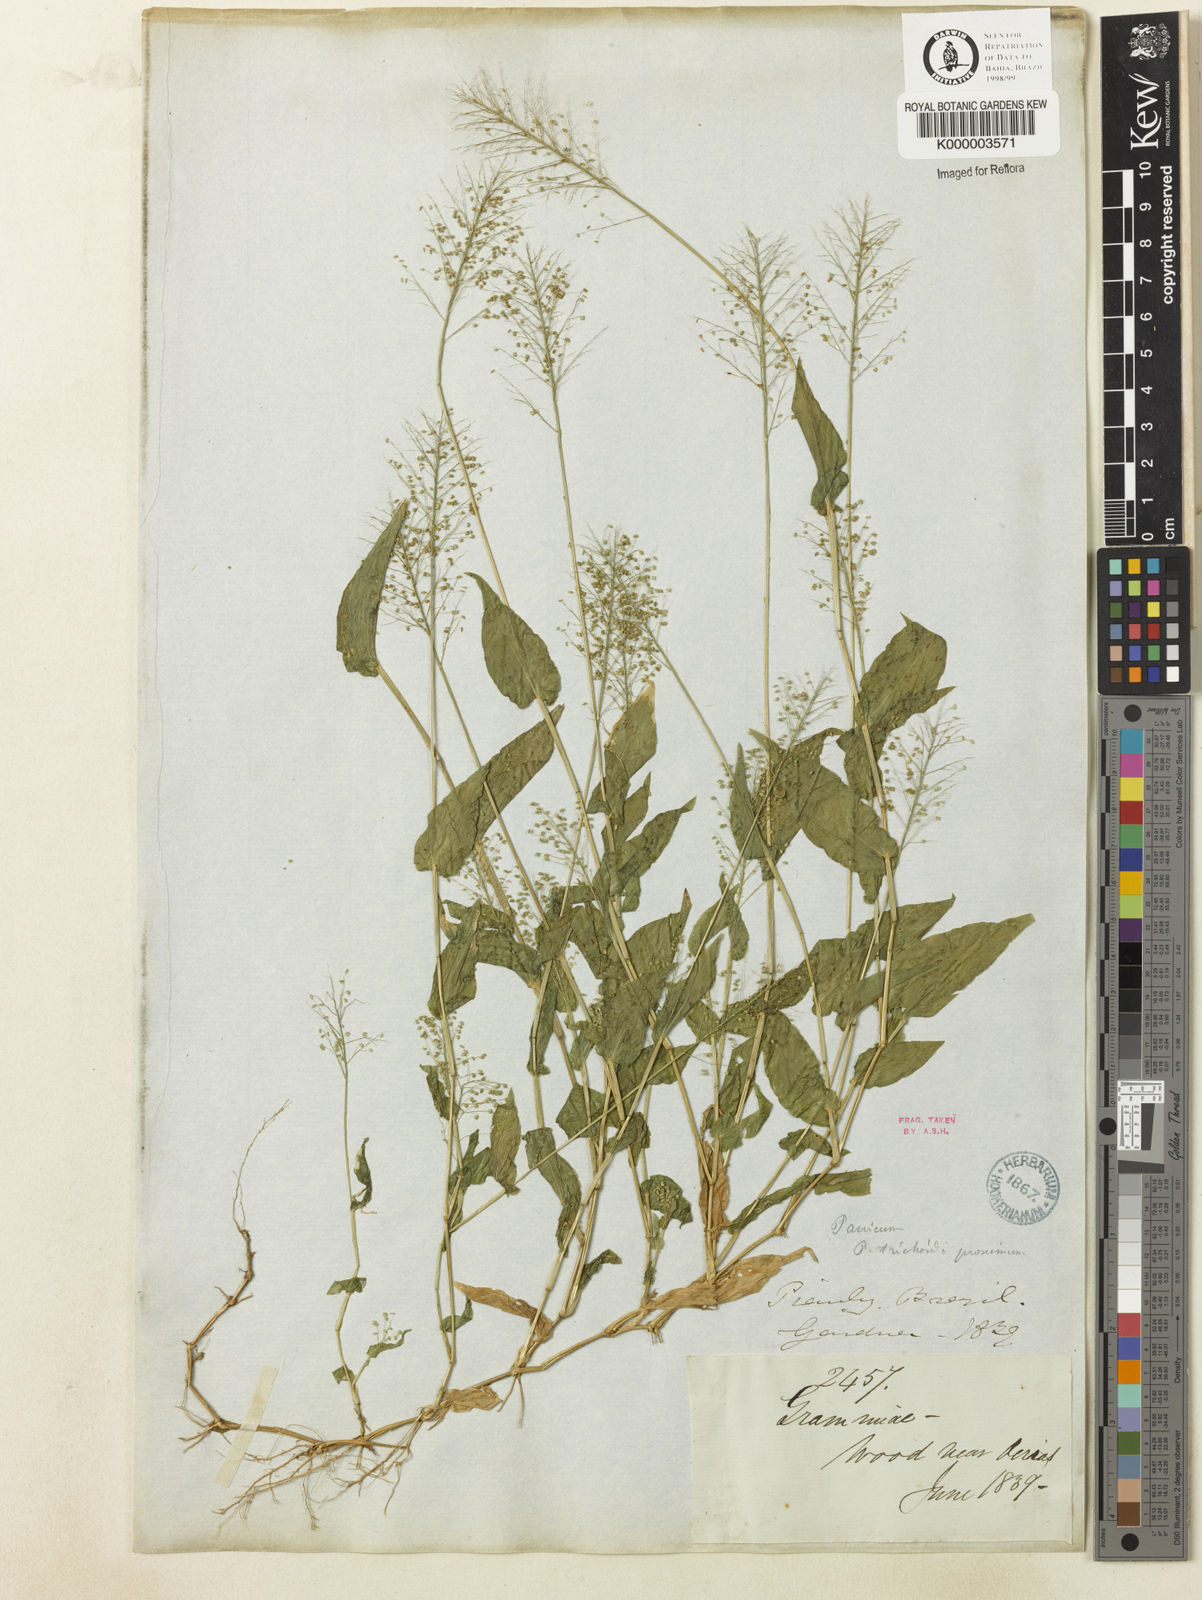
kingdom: Plantae
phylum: Tracheophyta
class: Liliopsida
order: Poales
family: Poaceae
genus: Panicum
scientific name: Panicum hirtum
